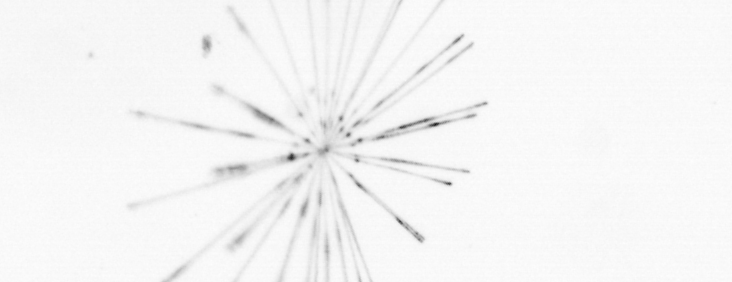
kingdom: Chromista
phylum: Ochrophyta
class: Bacillariophyceae
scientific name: Bacillariophyceae
